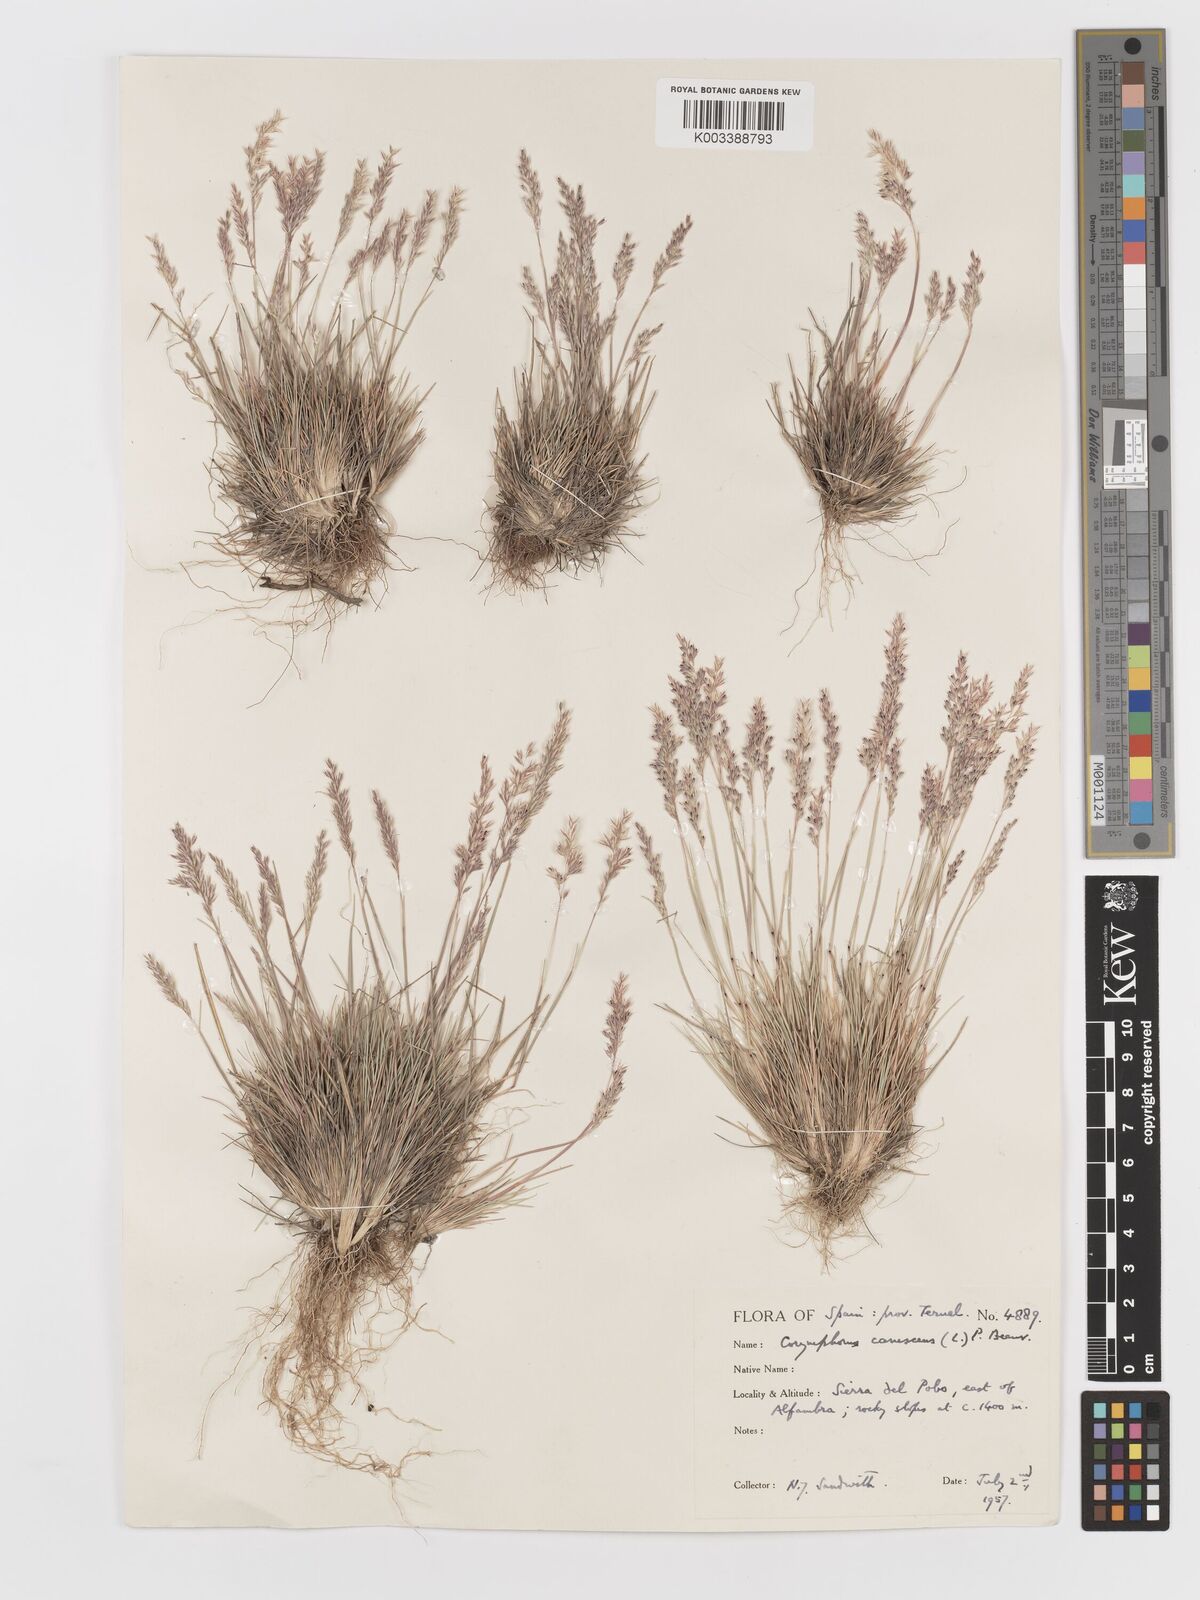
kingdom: Plantae
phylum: Tracheophyta
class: Liliopsida
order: Poales
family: Poaceae
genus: Corynephorus
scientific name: Corynephorus canescens
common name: Grey hair-grass
